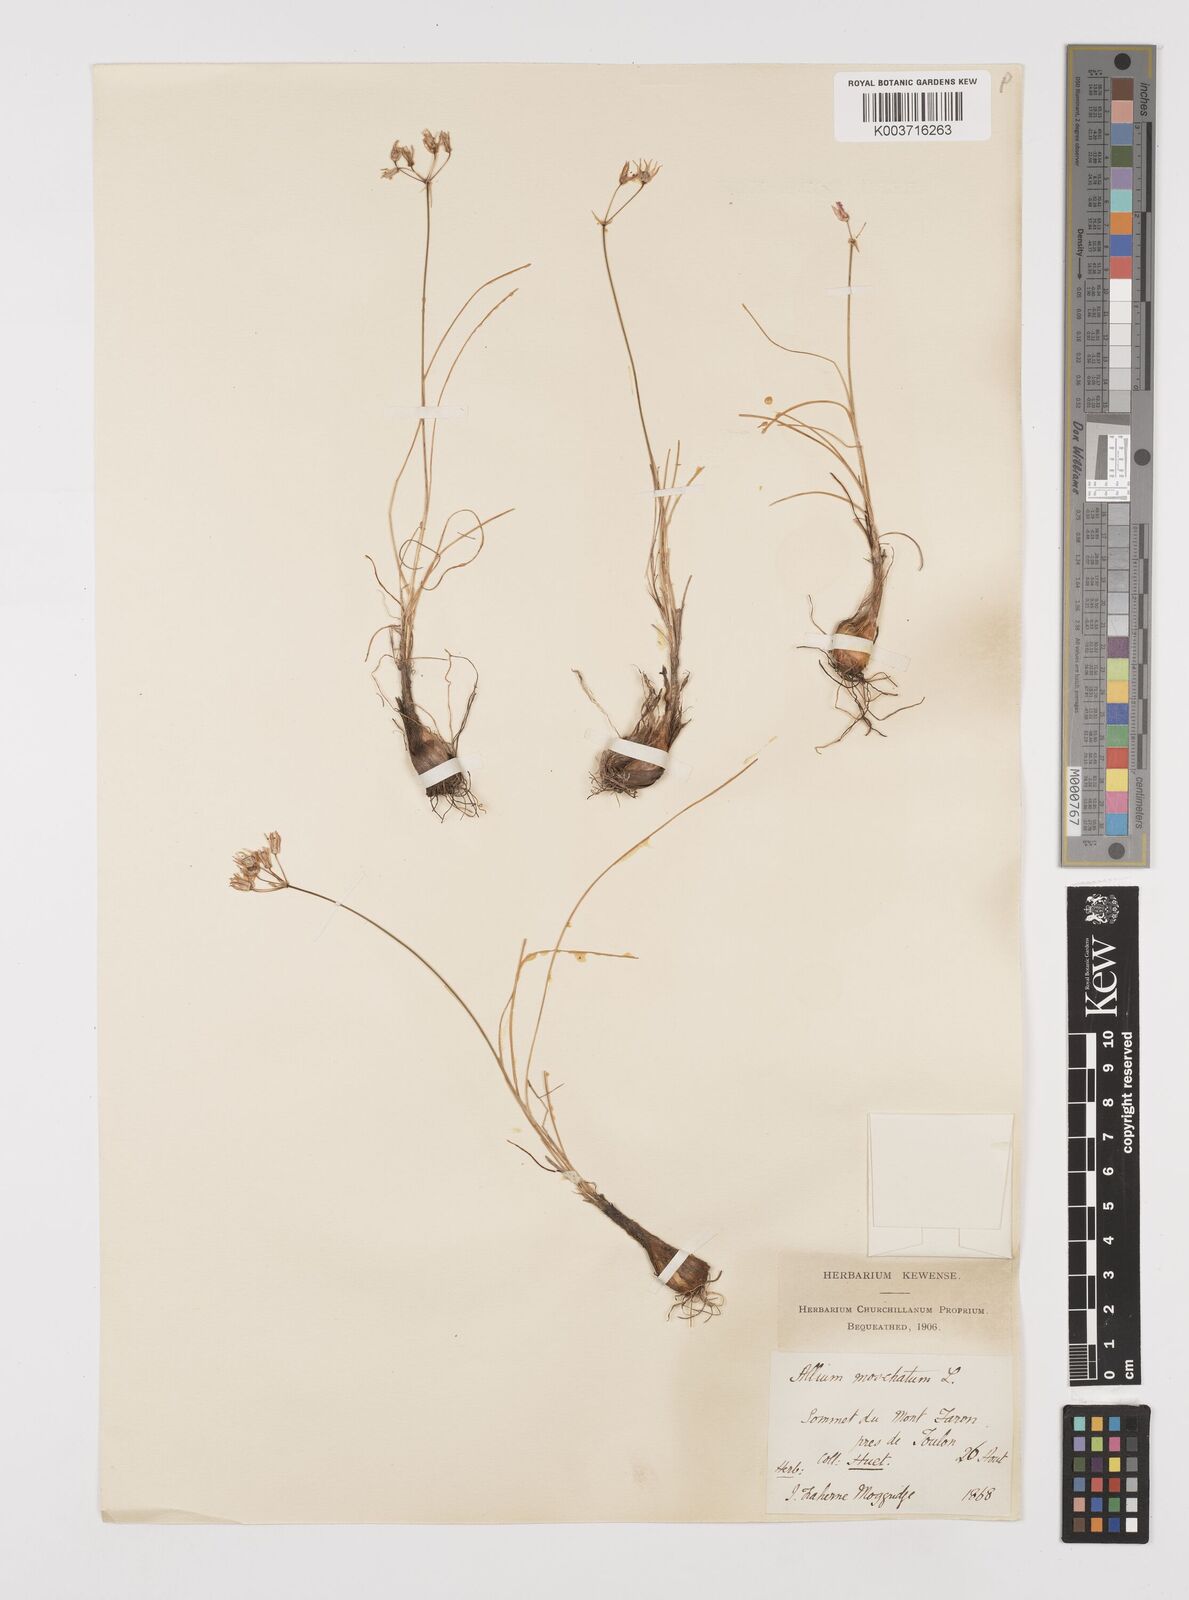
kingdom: Plantae
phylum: Tracheophyta
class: Liliopsida
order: Asparagales
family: Amaryllidaceae
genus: Allium
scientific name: Allium moschatum
